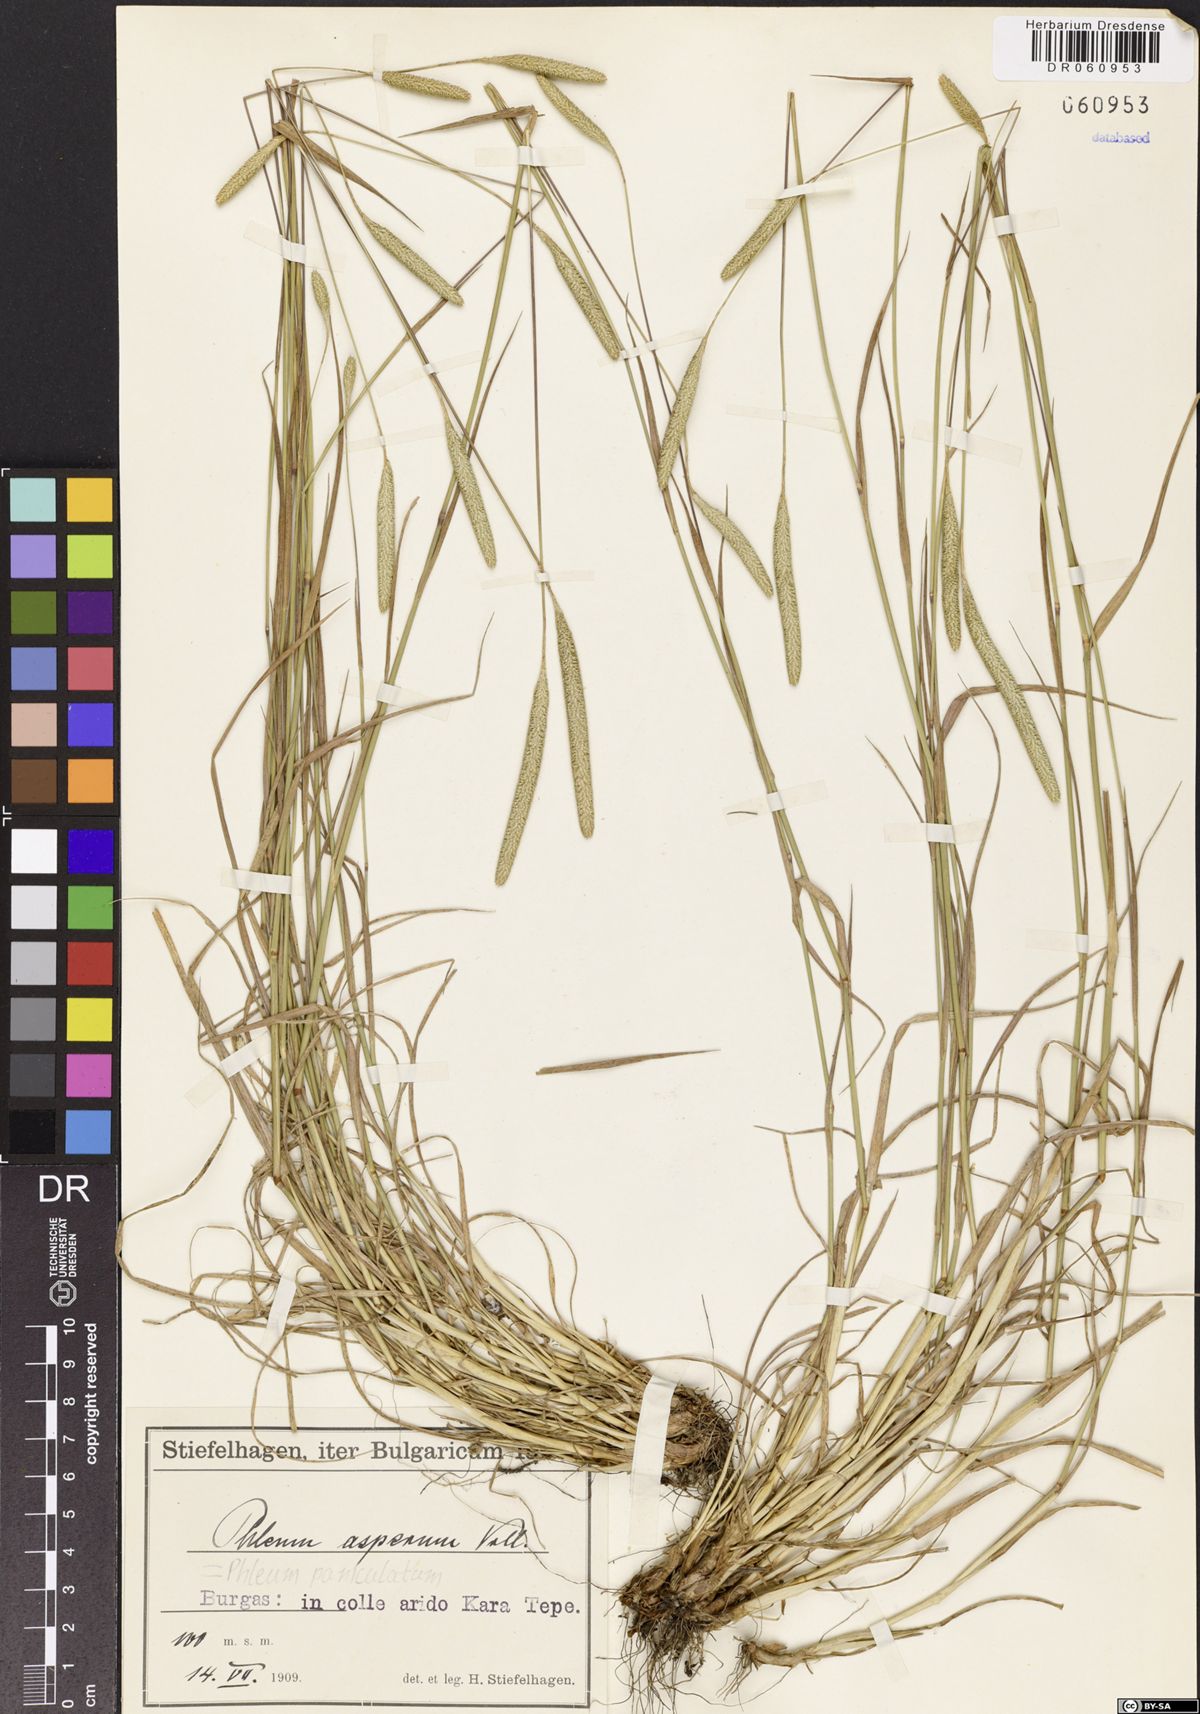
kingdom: Plantae
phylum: Tracheophyta
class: Liliopsida
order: Poales
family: Poaceae
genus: Phleum
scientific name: Phleum paniculatum
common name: British timothy
